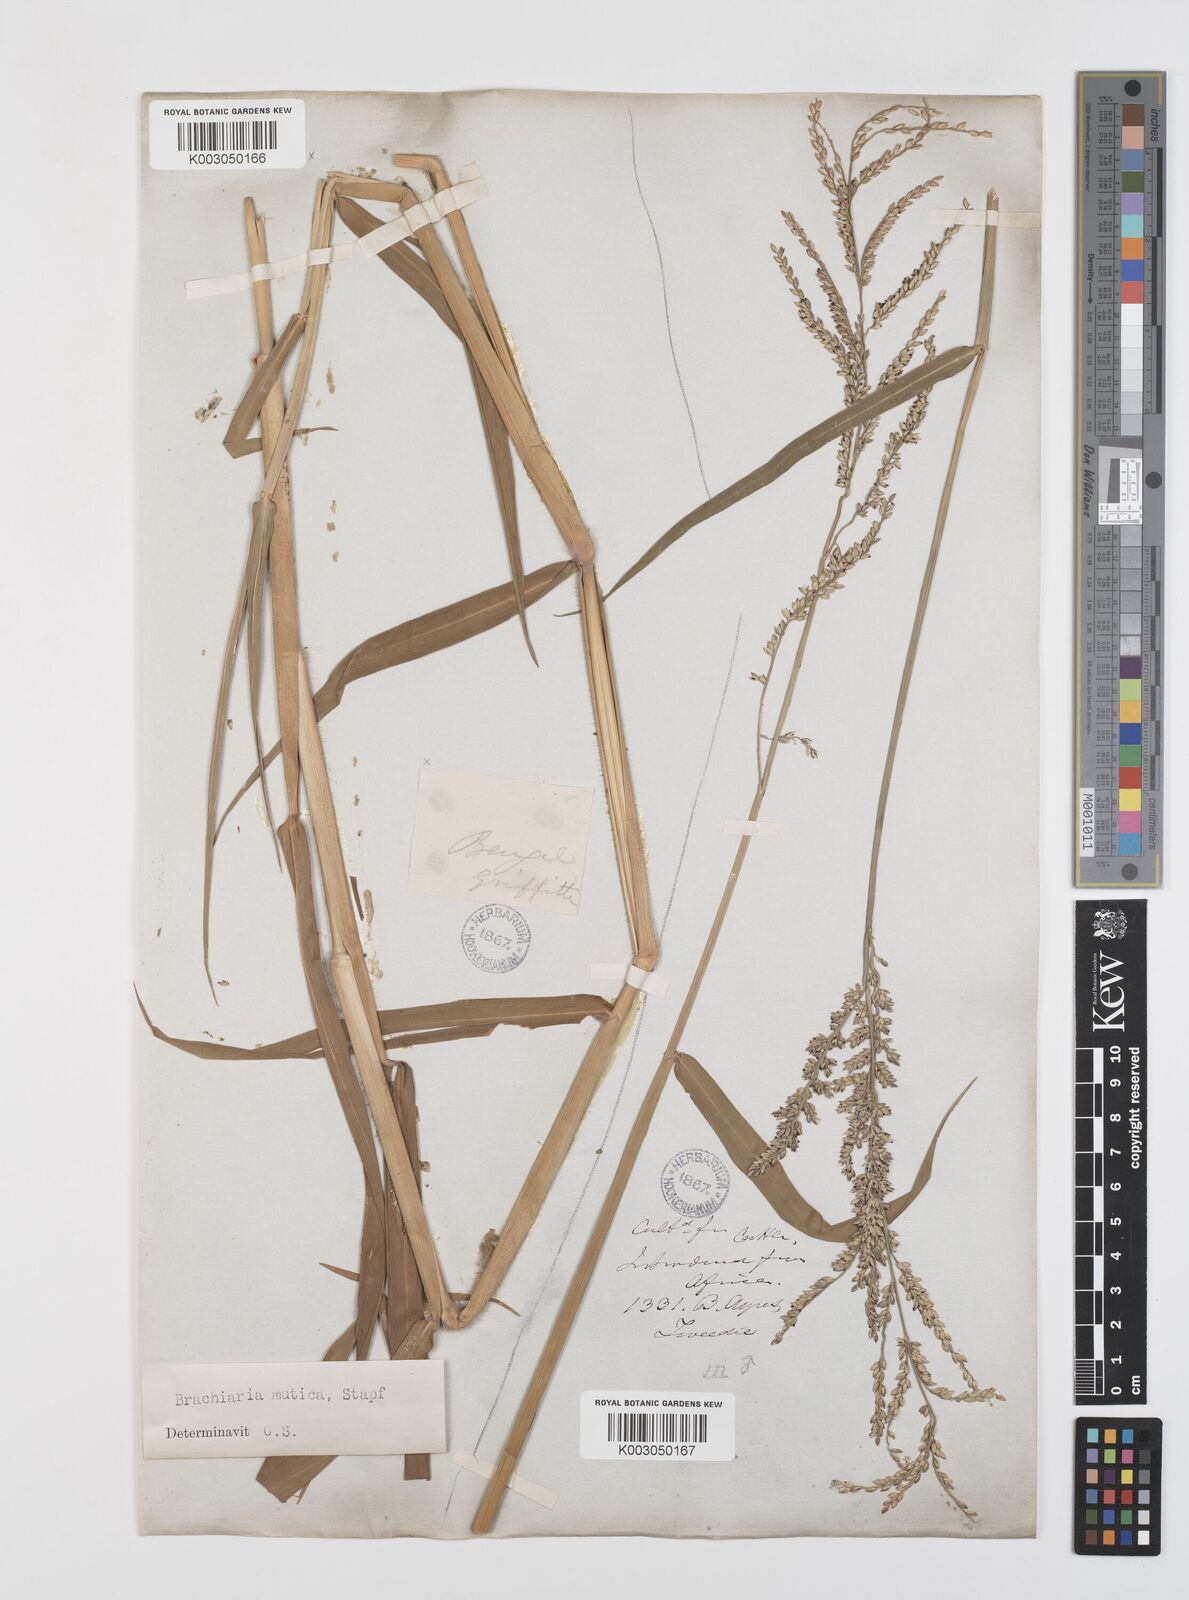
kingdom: Plantae
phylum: Tracheophyta
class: Liliopsida
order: Poales
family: Poaceae
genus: Urochloa
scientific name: Urochloa mutica
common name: Para grass
